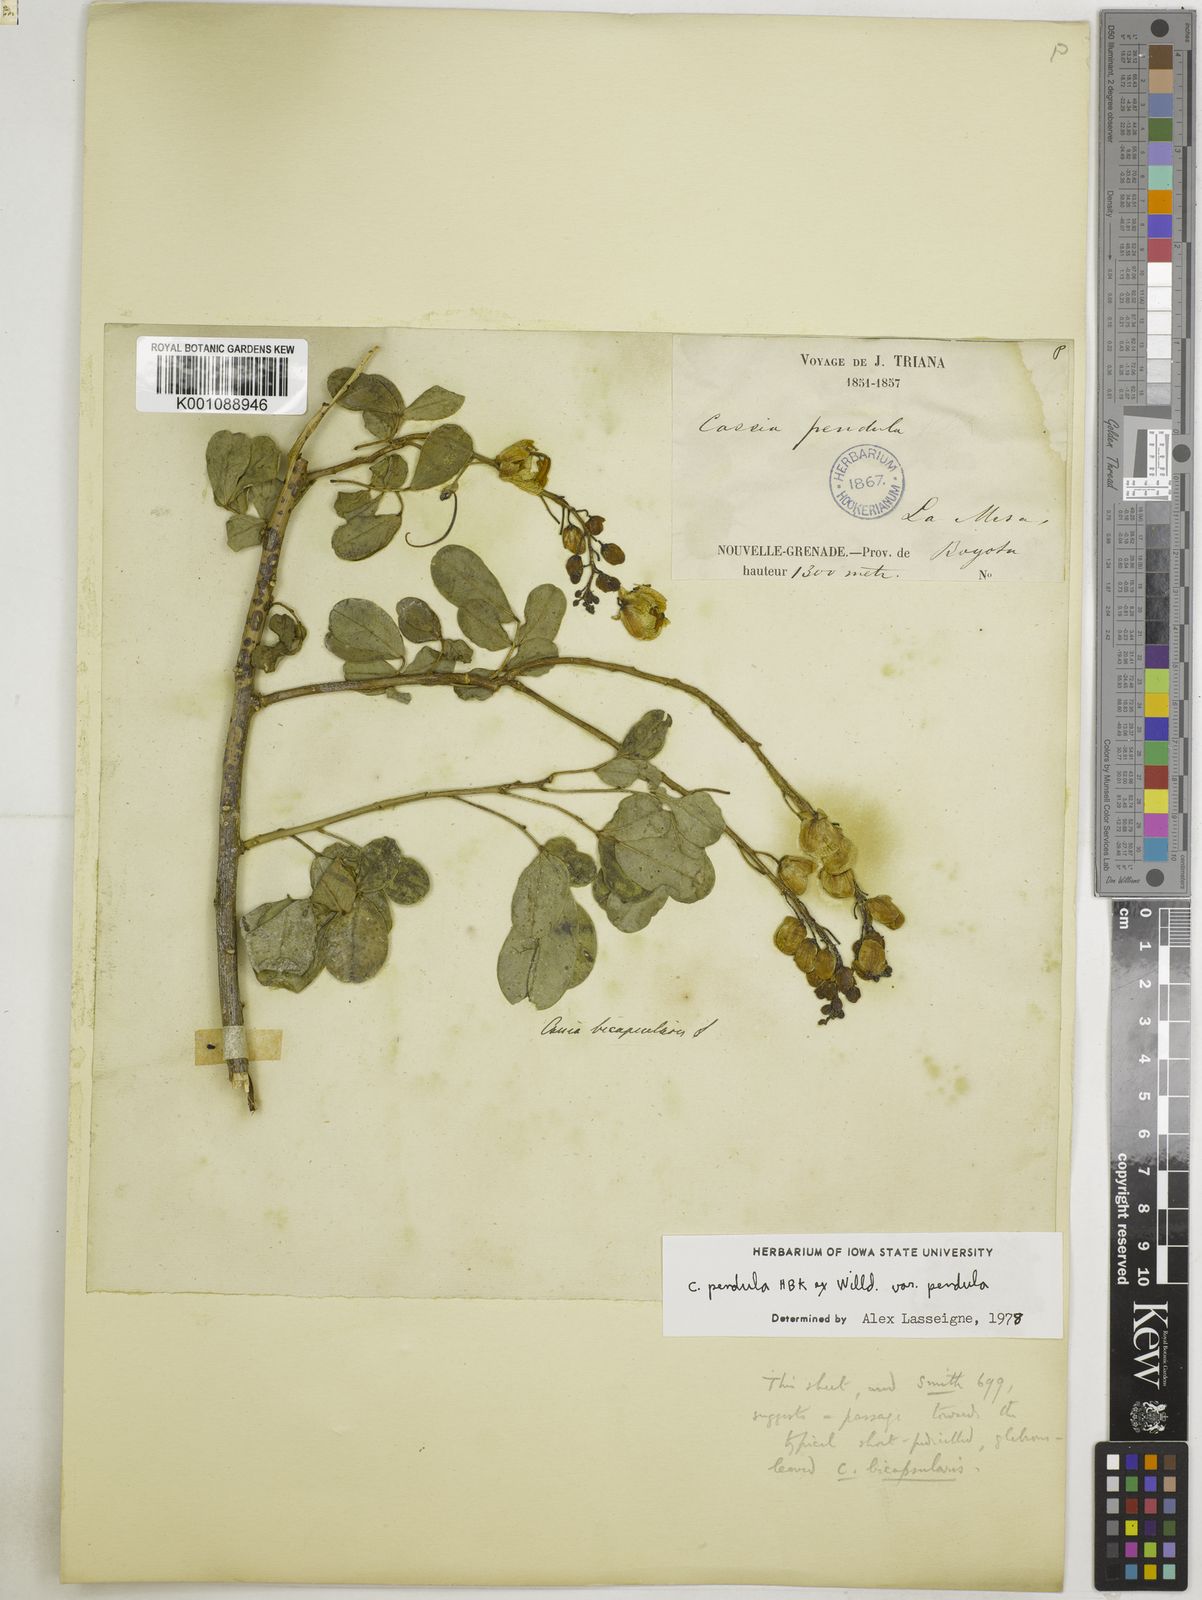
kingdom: Plantae
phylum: Tracheophyta
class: Magnoliopsida
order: Fabales
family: Fabaceae
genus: Senna
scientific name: Senna pendula
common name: Easter cassia
